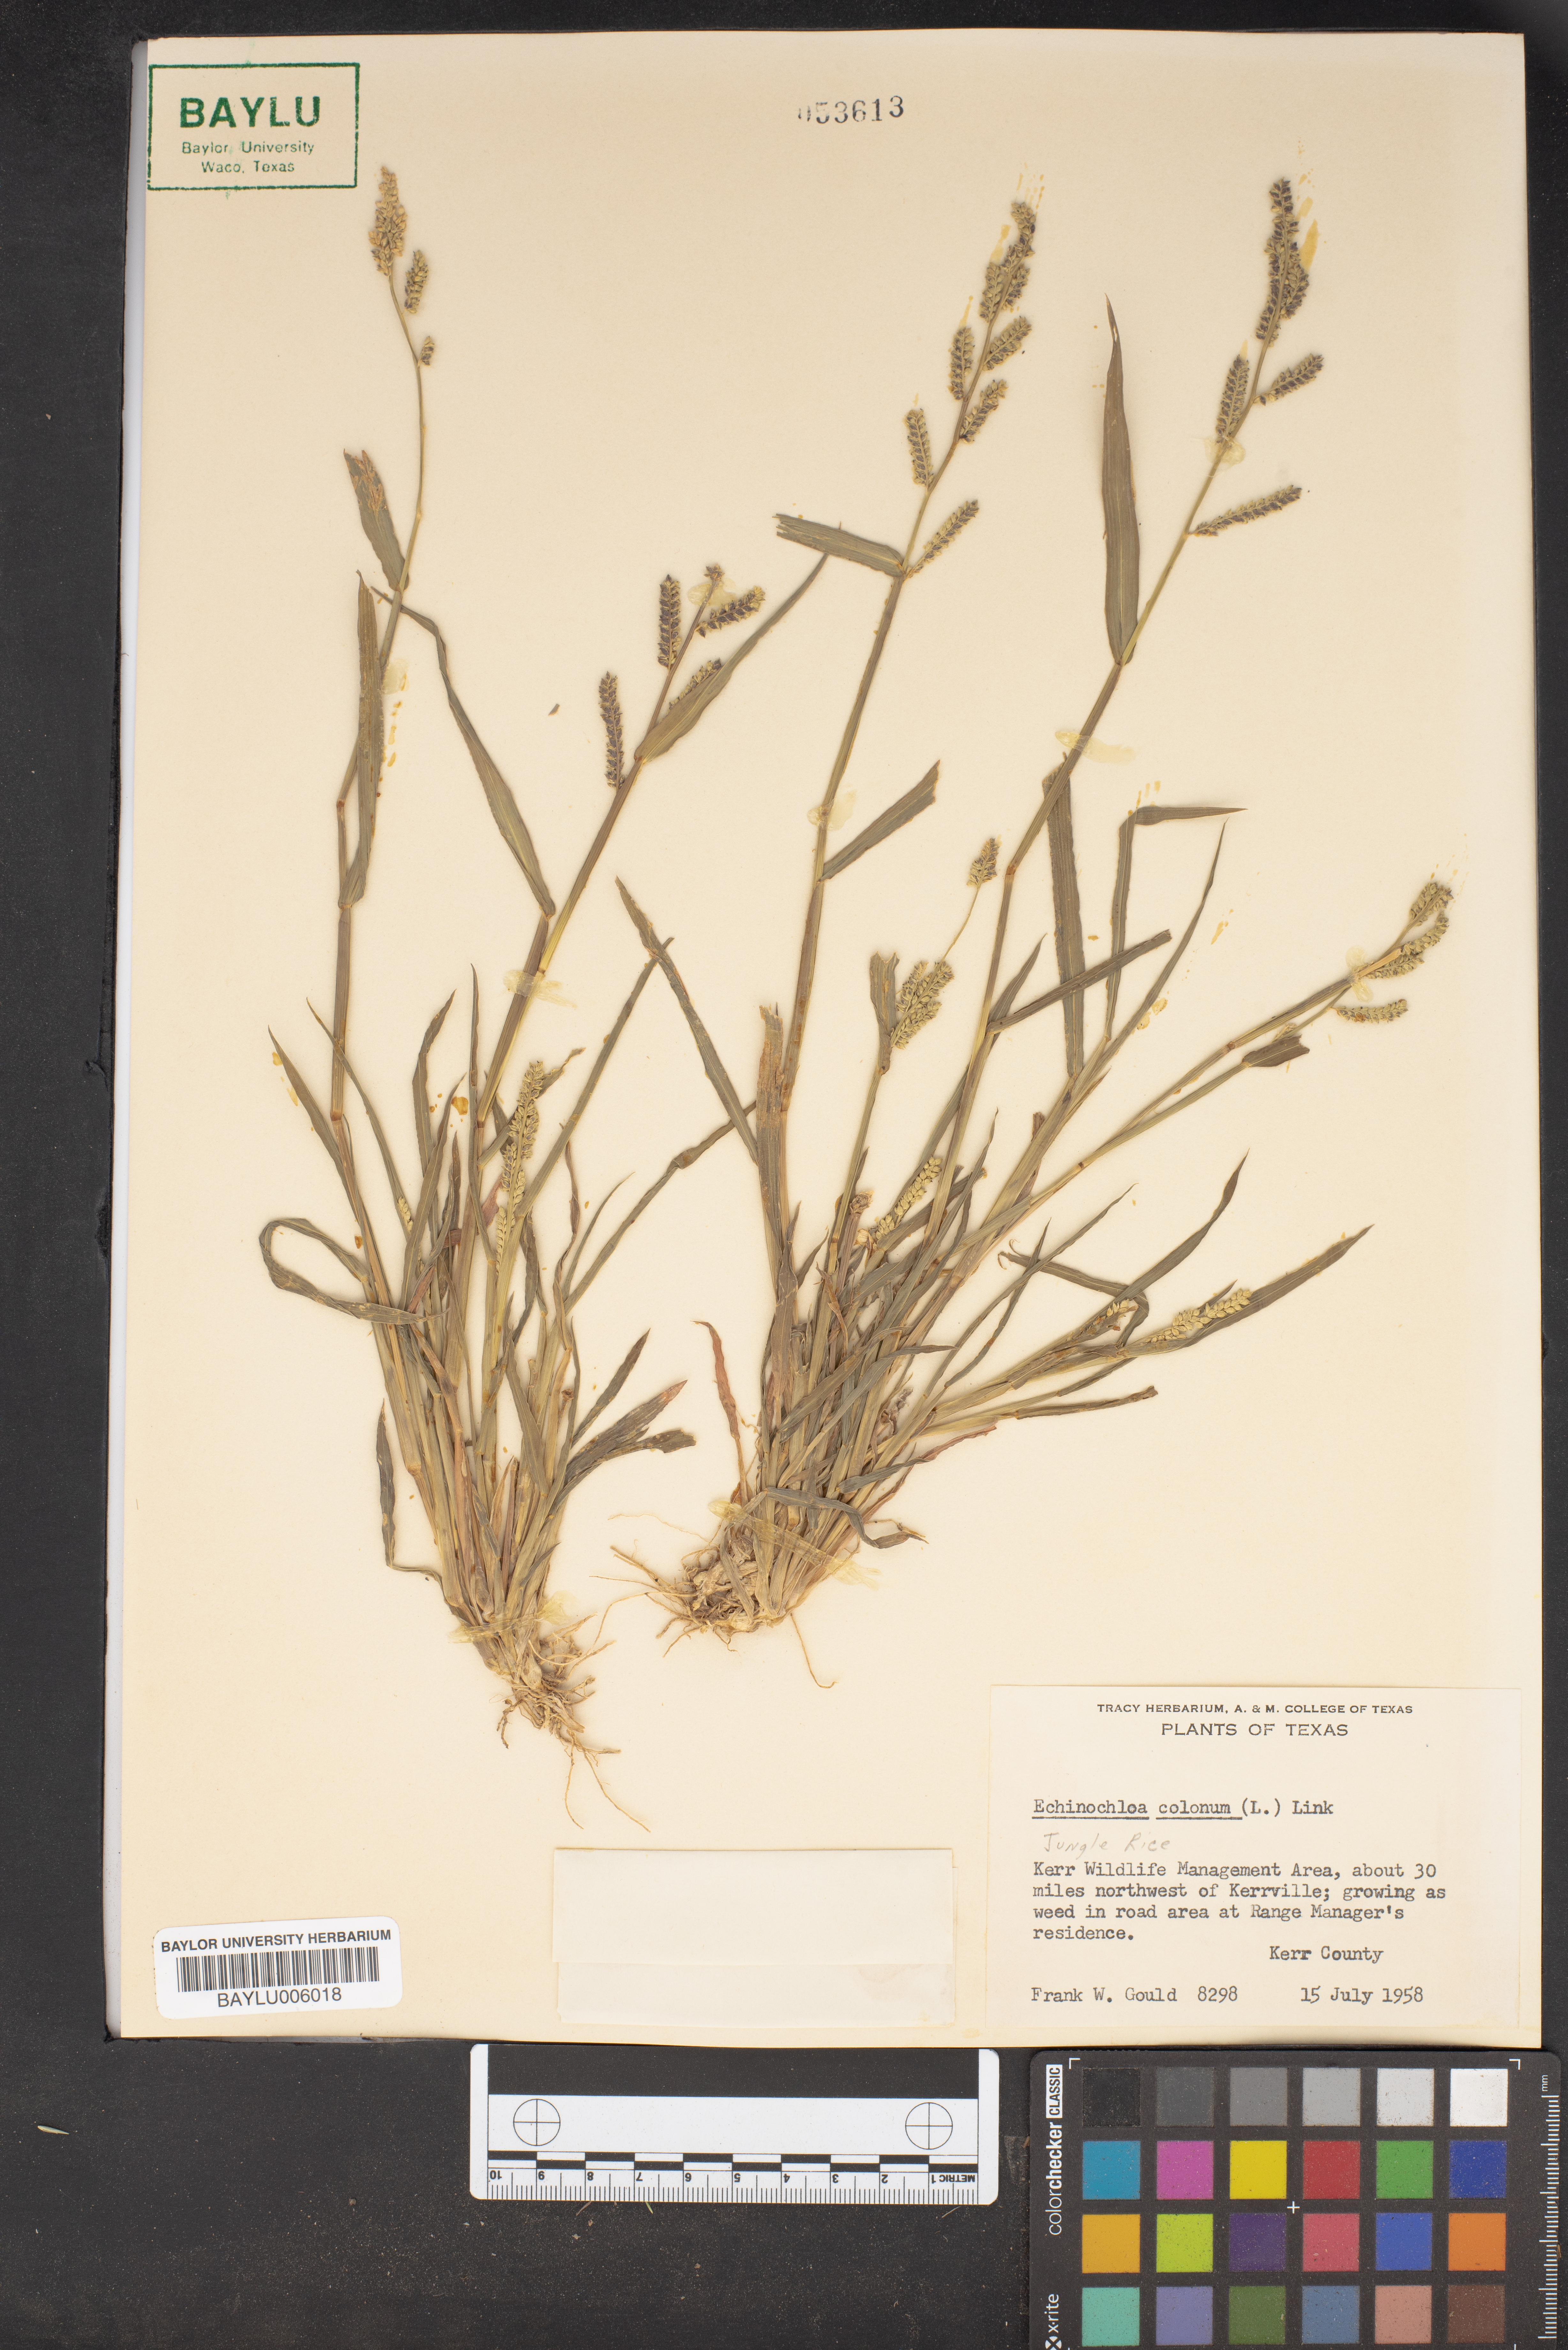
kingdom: Plantae
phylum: Tracheophyta
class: Liliopsida
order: Poales
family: Poaceae
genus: Echinochloa
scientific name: Echinochloa colonum
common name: Jungle rice
